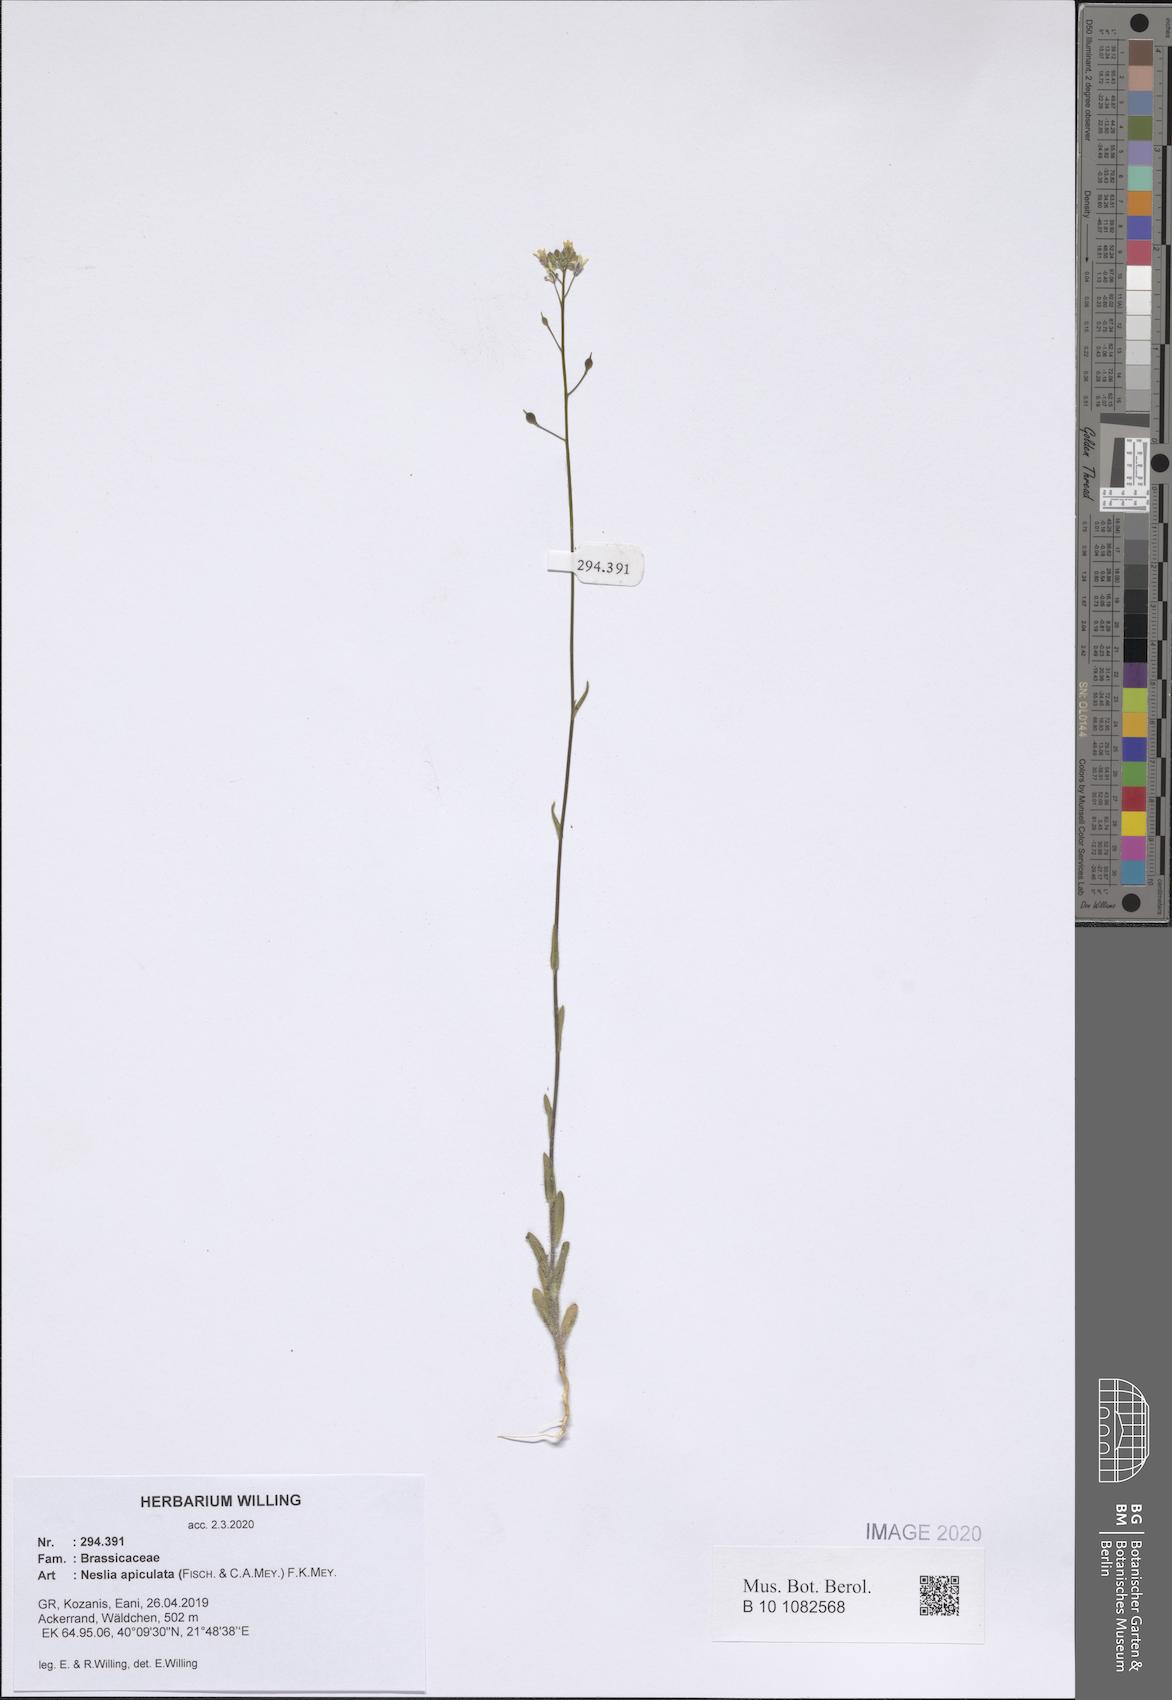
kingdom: Plantae
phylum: Tracheophyta
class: Magnoliopsida
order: Brassicales
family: Brassicaceae
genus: Neslia
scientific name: Neslia paniculata
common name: Ball mustard
